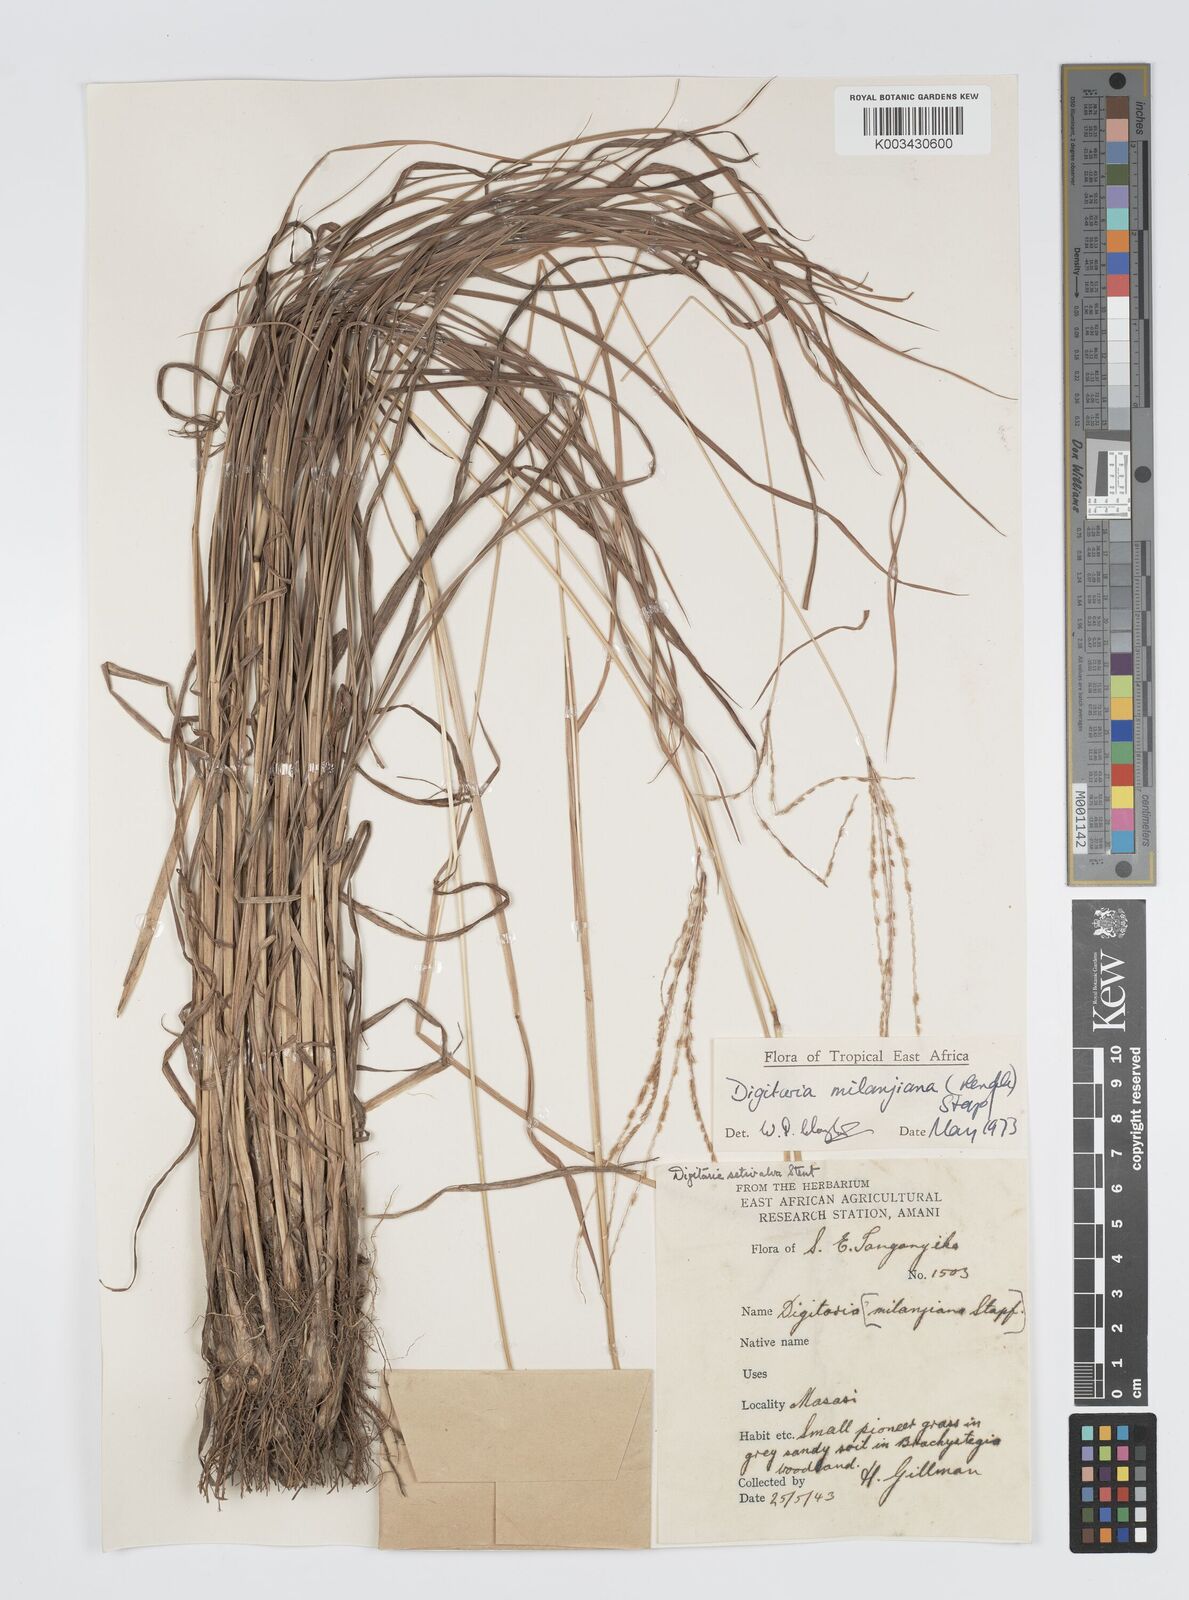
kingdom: Plantae
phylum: Tracheophyta
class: Liliopsida
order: Poales
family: Poaceae
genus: Digitaria
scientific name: Digitaria milanjiana
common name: Madagascar crabgrass
